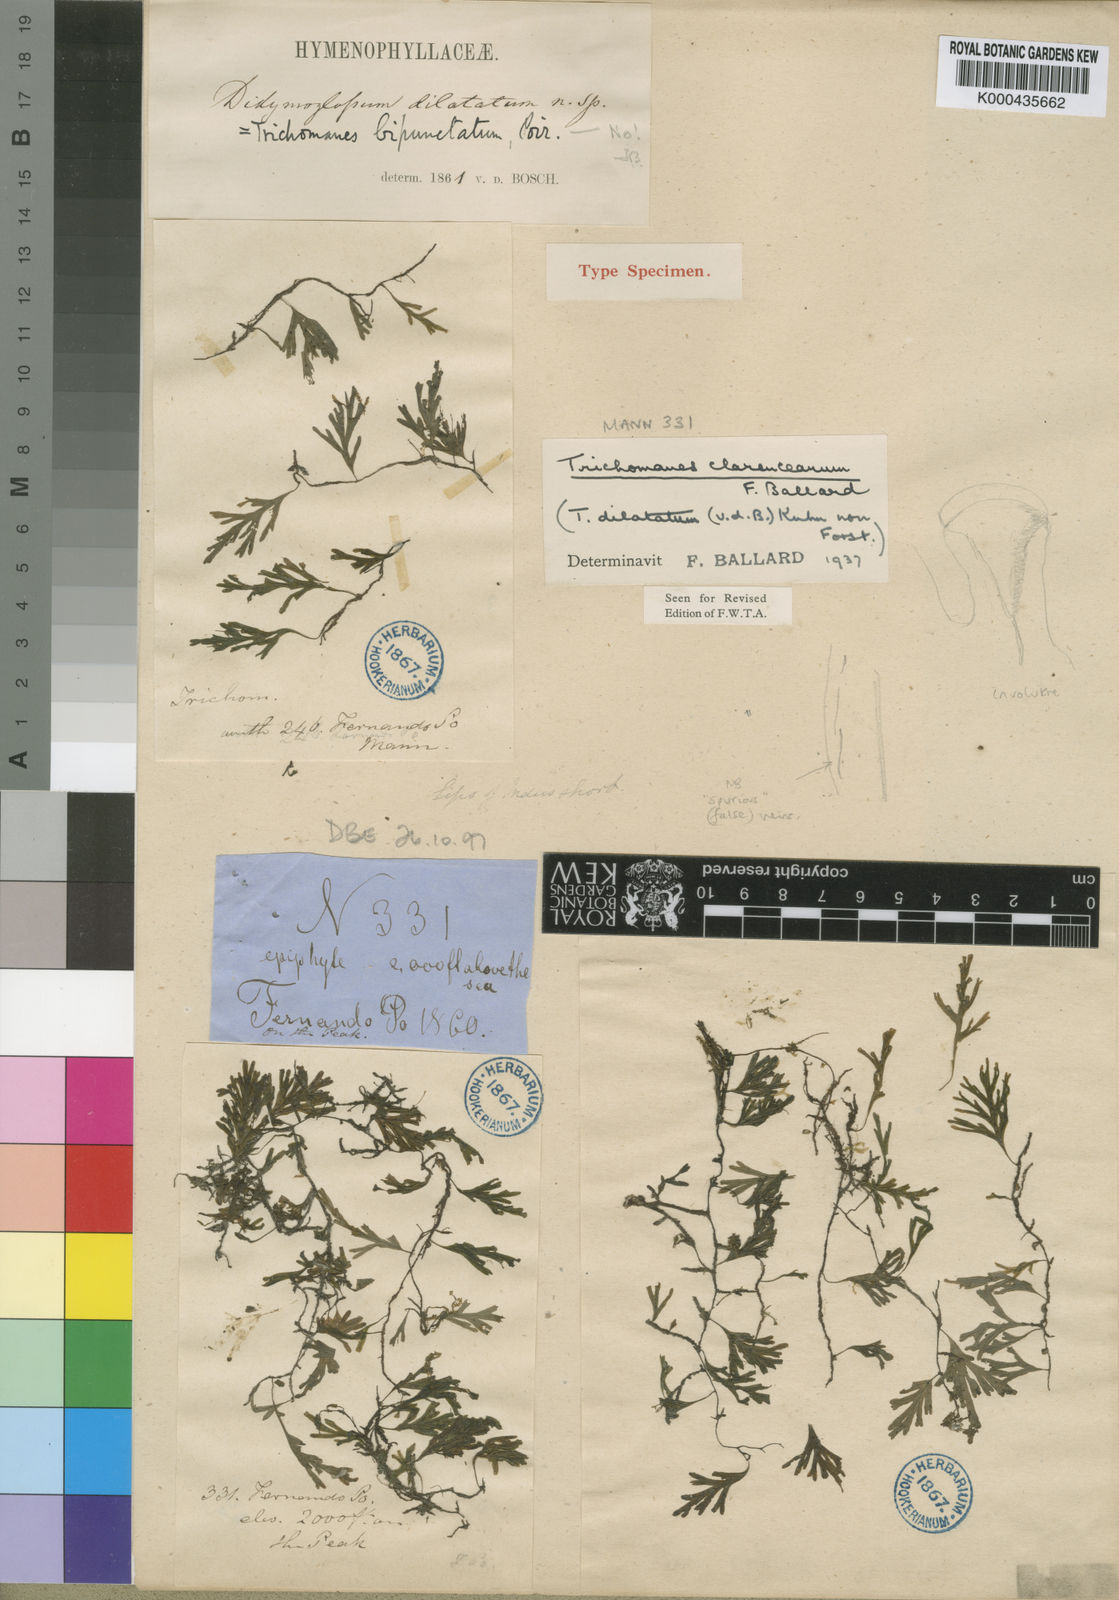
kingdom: Plantae
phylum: Tracheophyta
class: Polypodiopsida
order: Hymenophyllales
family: Hymenophyllaceae
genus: Crepidomanes
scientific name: Crepidomanes clarenceanum
